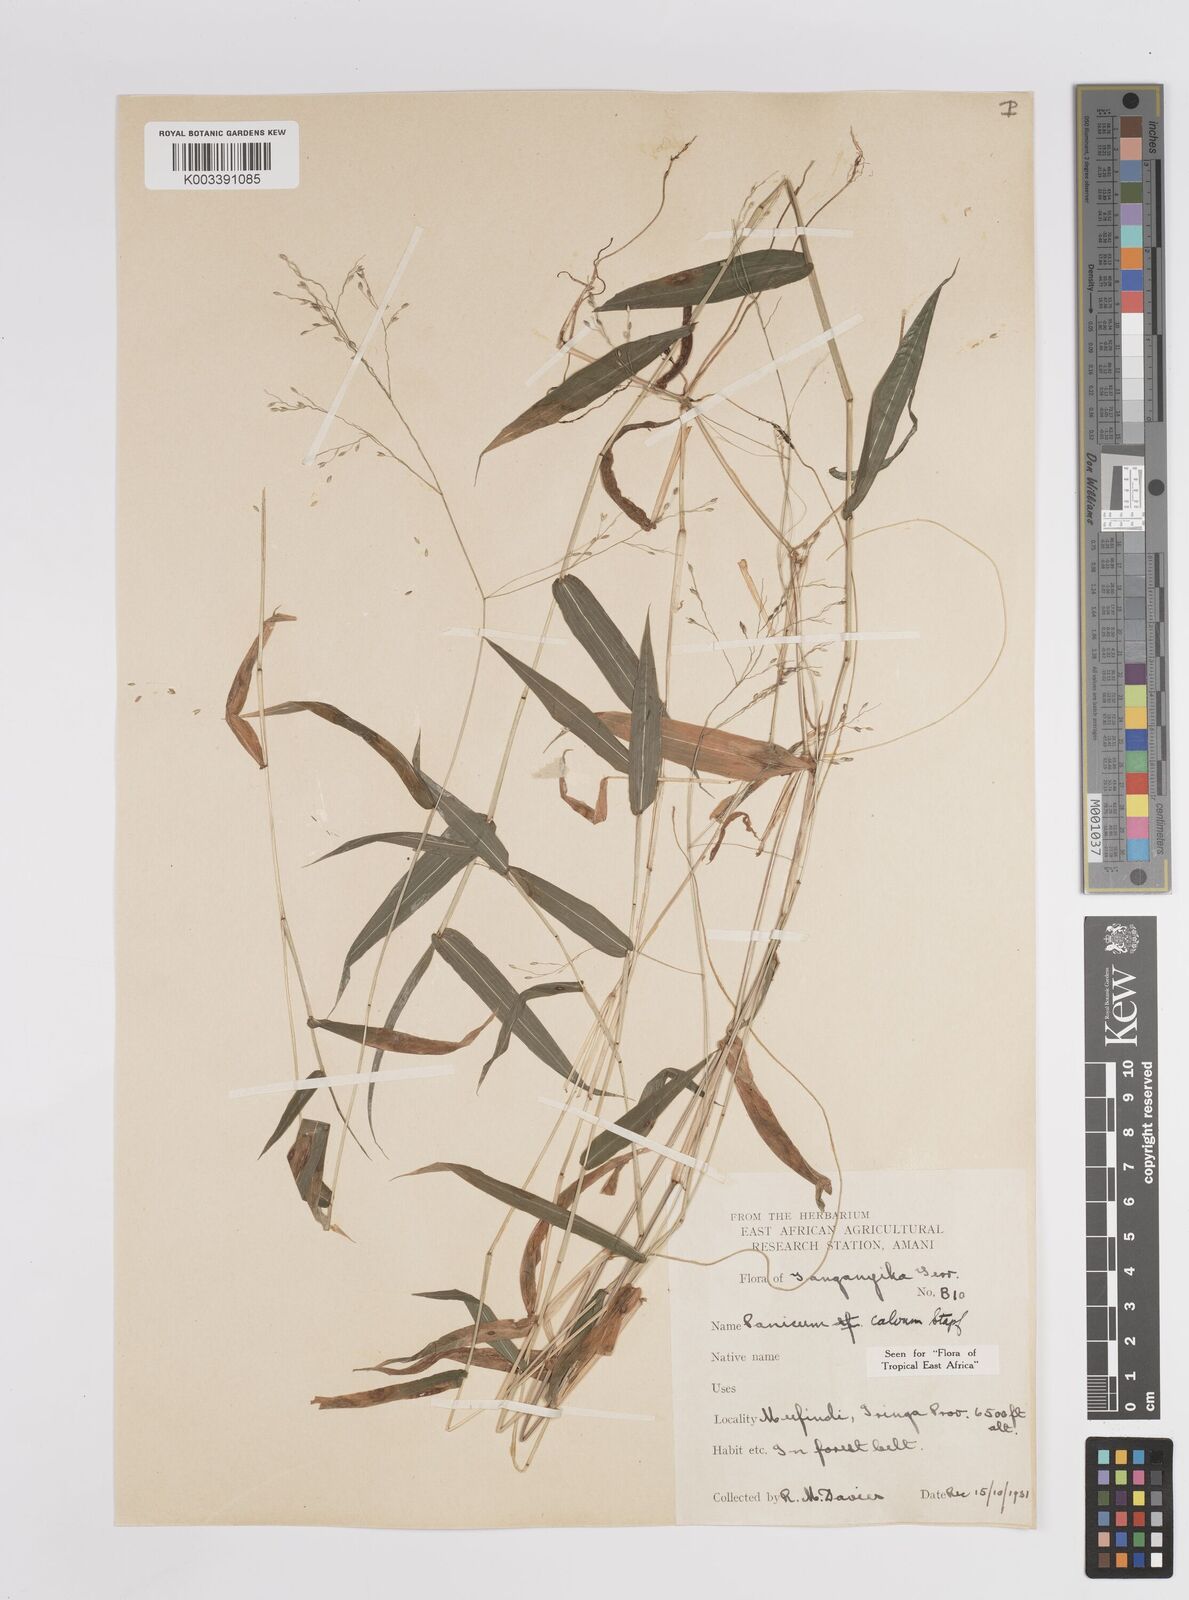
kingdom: Plantae
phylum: Tracheophyta
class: Liliopsida
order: Poales
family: Poaceae
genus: Panicum
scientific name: Panicum calvum
